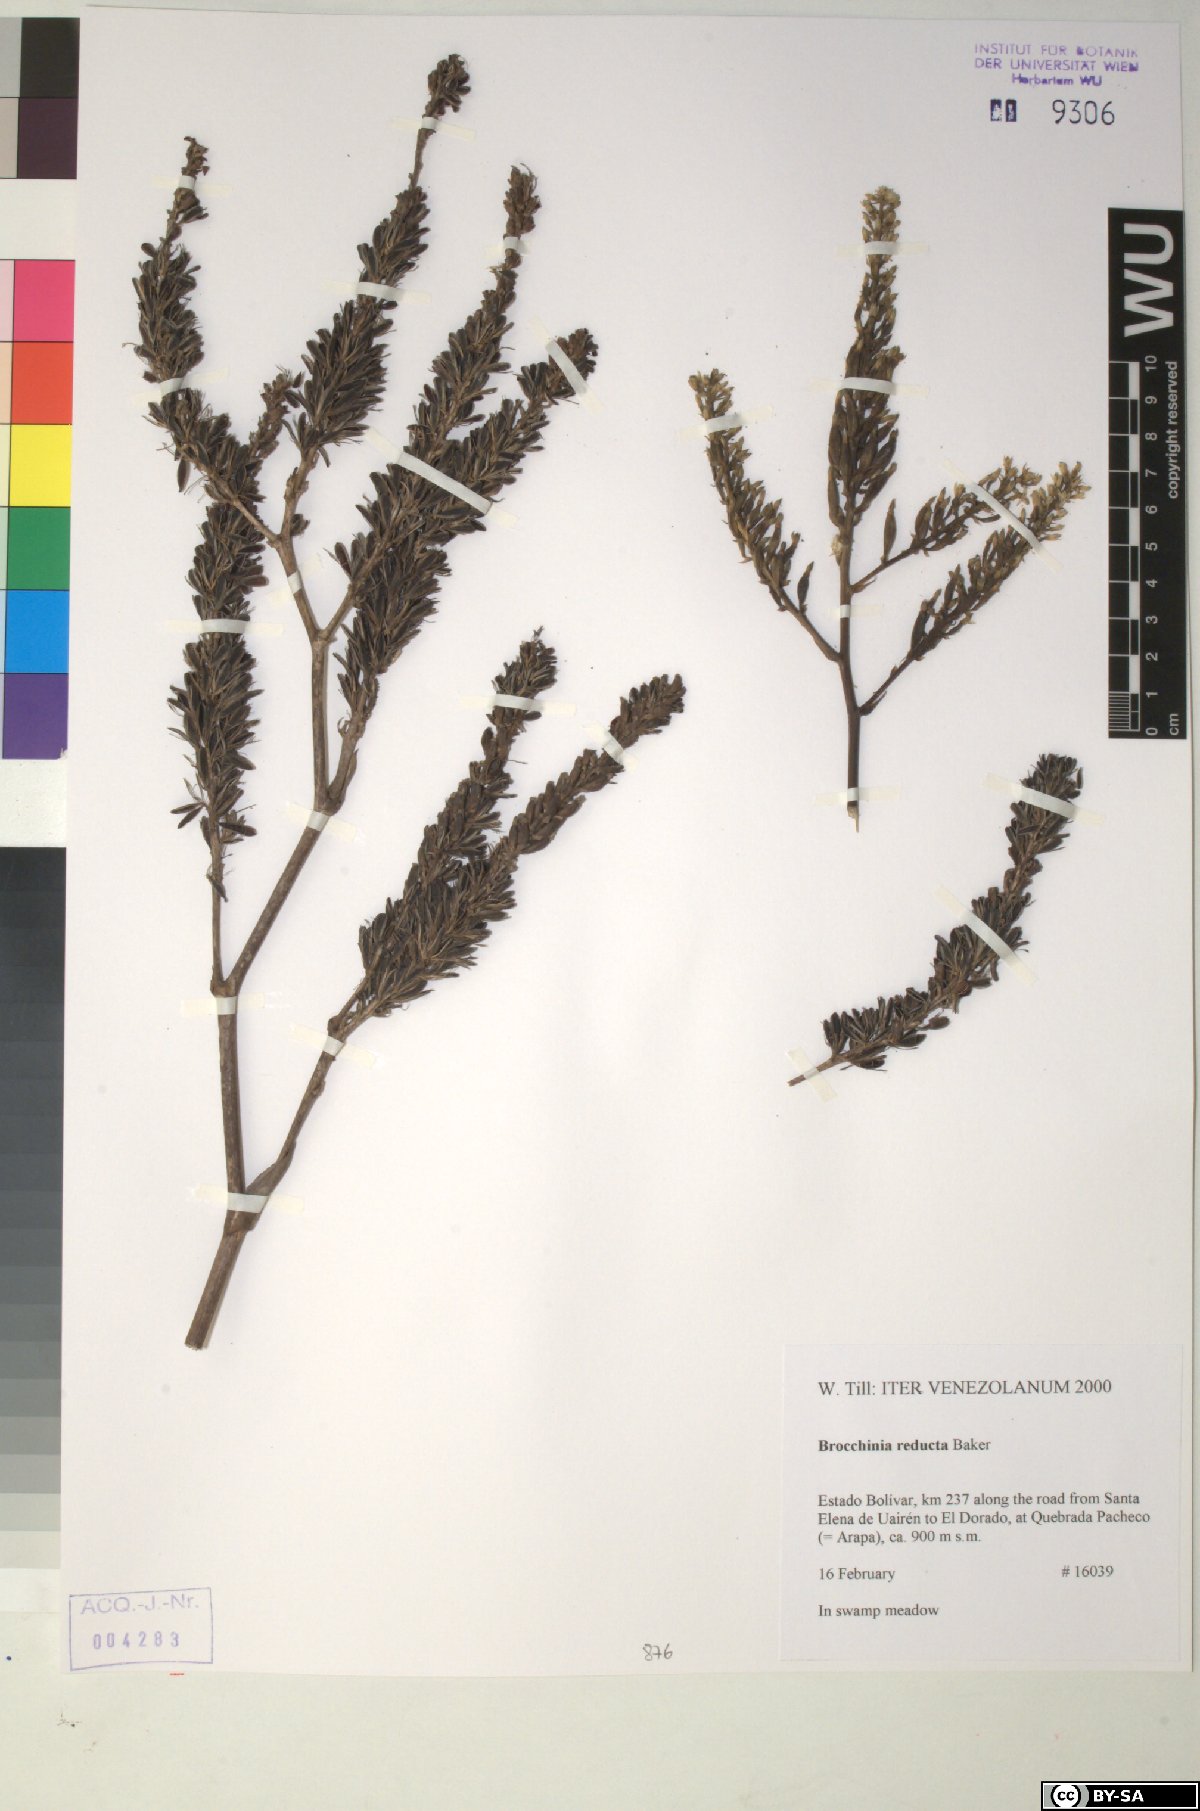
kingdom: Plantae
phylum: Tracheophyta
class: Liliopsida
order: Poales
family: Bromeliaceae
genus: Brocchinia
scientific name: Brocchinia reducta
